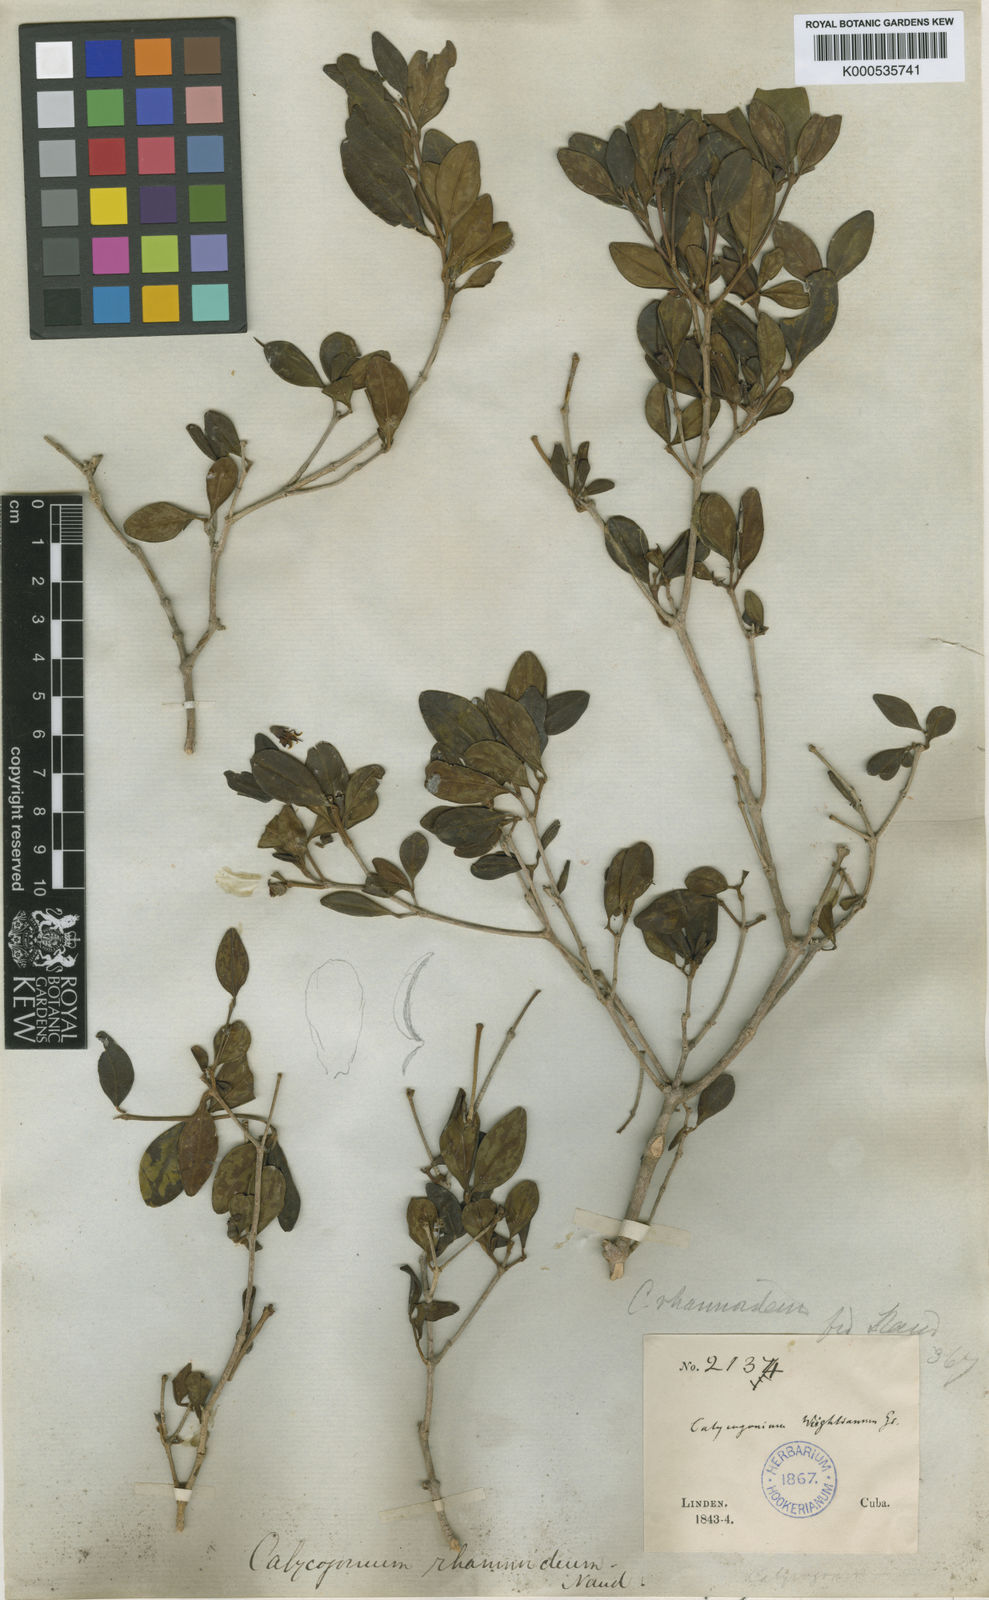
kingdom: Plantae
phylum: Tracheophyta
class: Magnoliopsida
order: Myrtales
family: Melastomataceae
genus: Miconia
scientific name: Miconia vulcanidomatia
